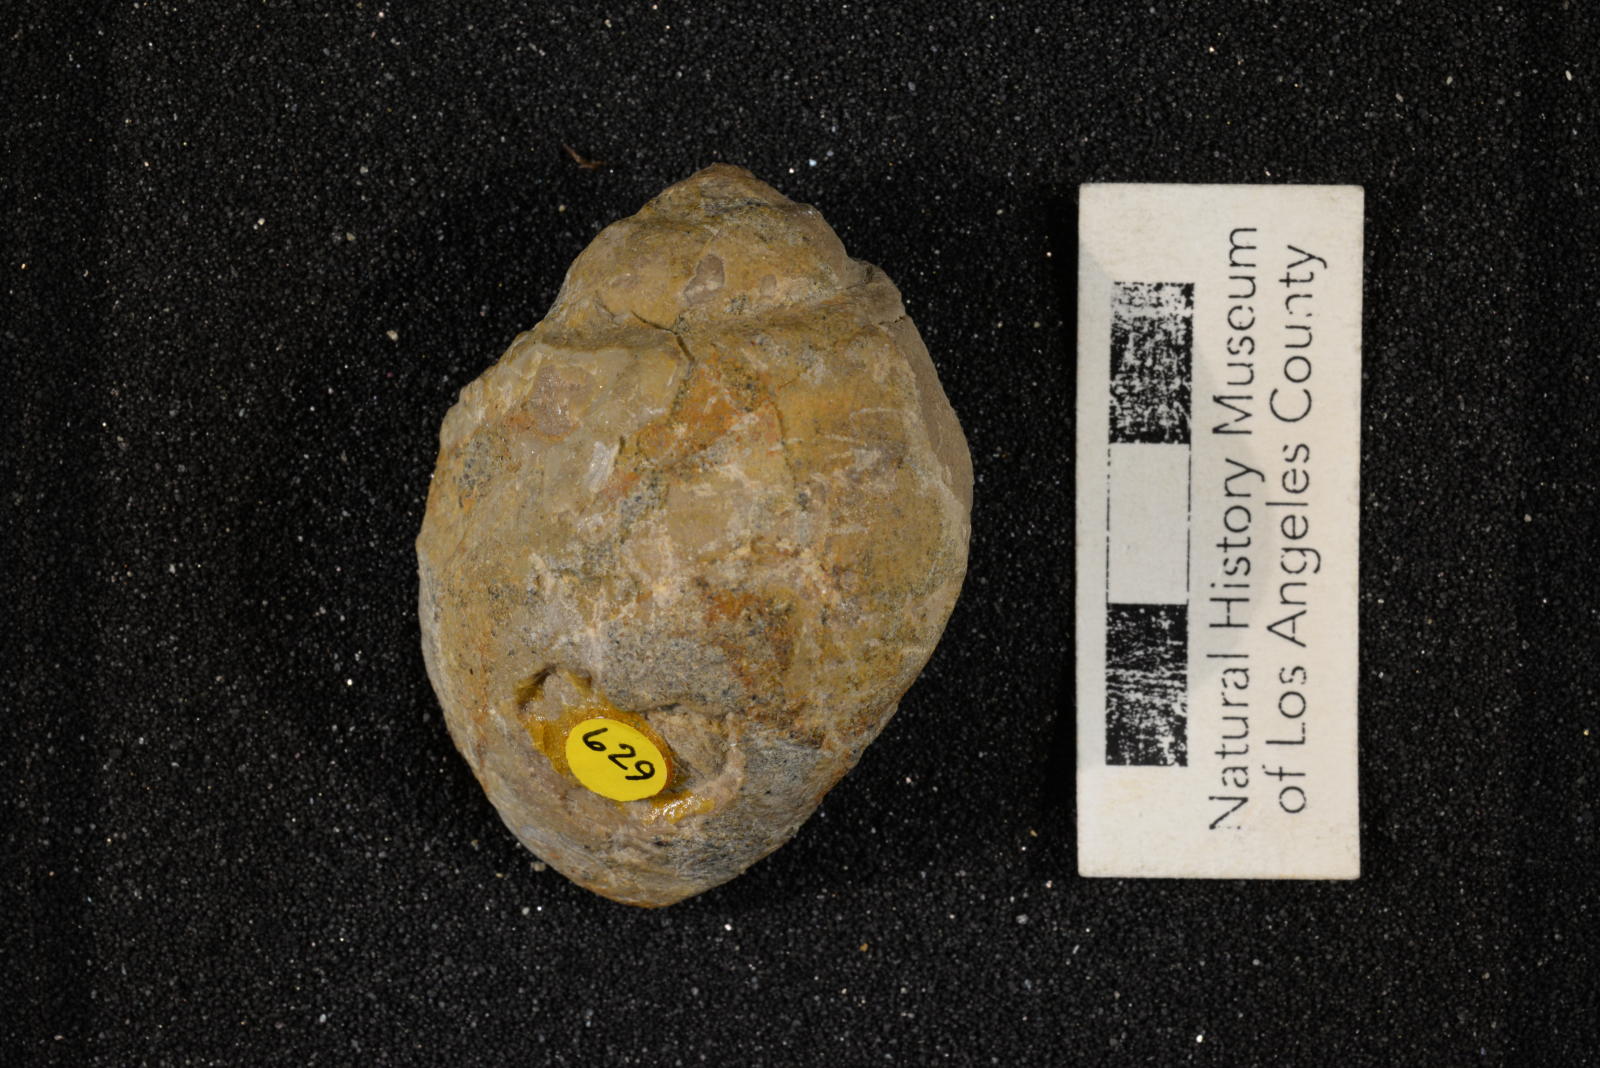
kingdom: Animalia
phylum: Mollusca
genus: Ampullina
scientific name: Ampullina
